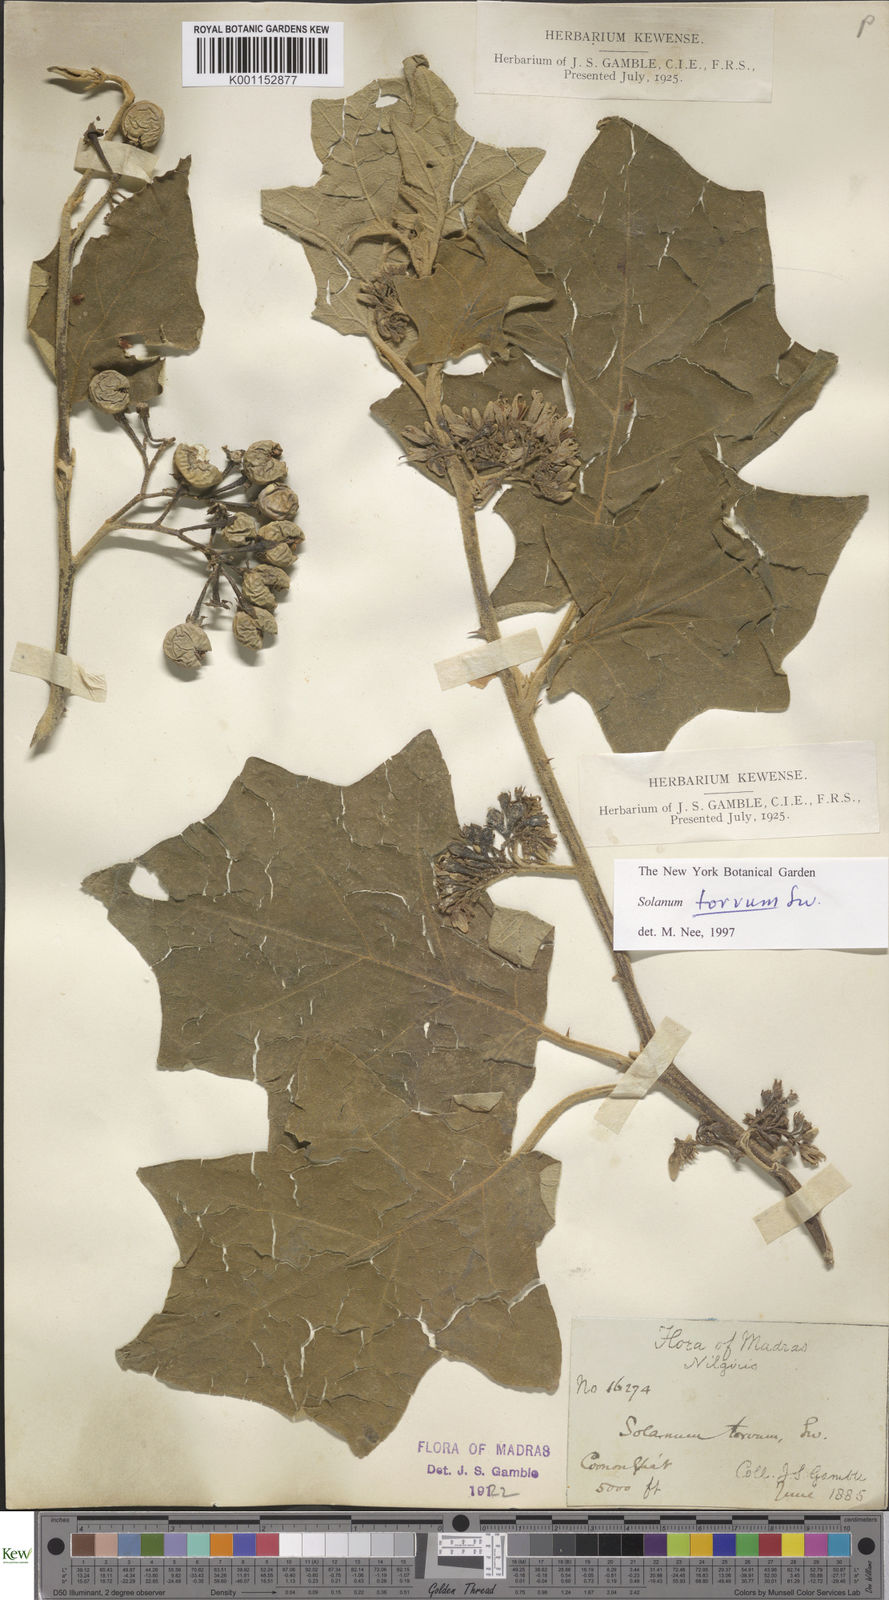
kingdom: Plantae
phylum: Tracheophyta
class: Magnoliopsida
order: Solanales
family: Solanaceae
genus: Solanum
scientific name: Solanum torvum
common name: Turkey berry
